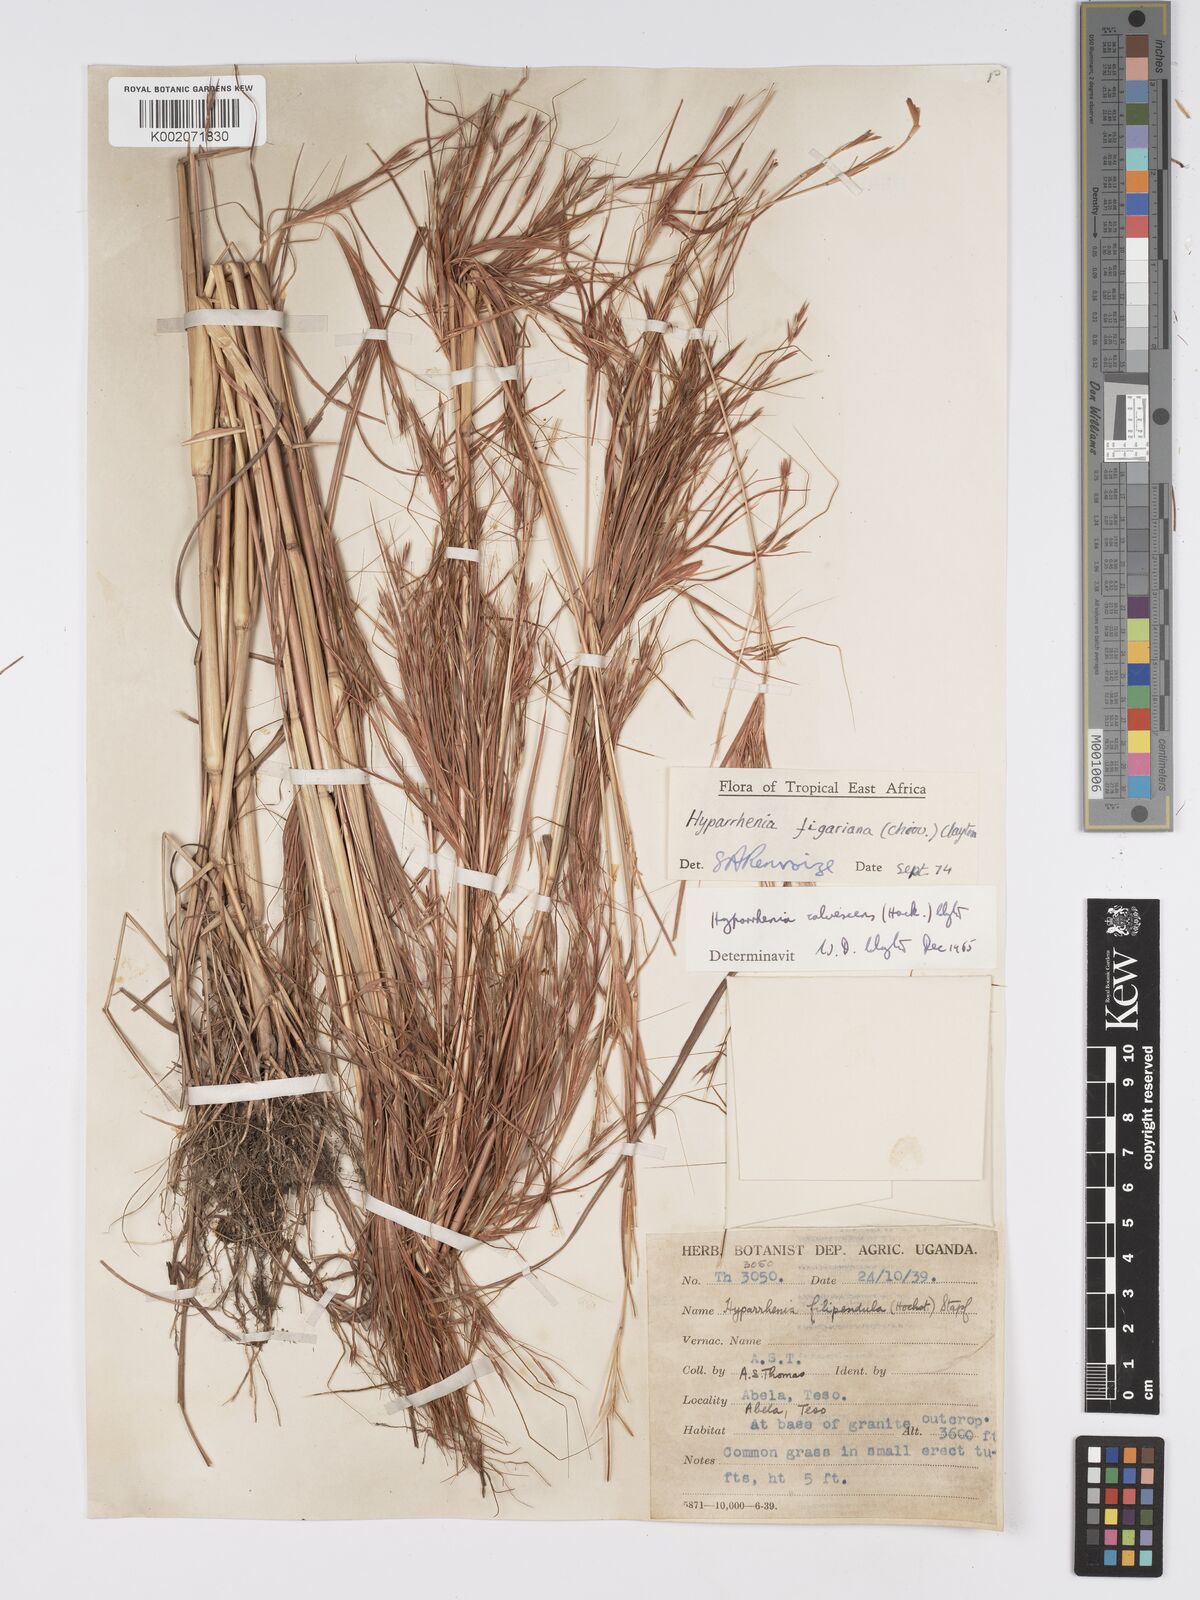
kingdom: Plantae
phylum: Tracheophyta
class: Liliopsida
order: Poales
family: Poaceae
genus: Hyparrhenia
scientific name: Hyparrhenia figariana
